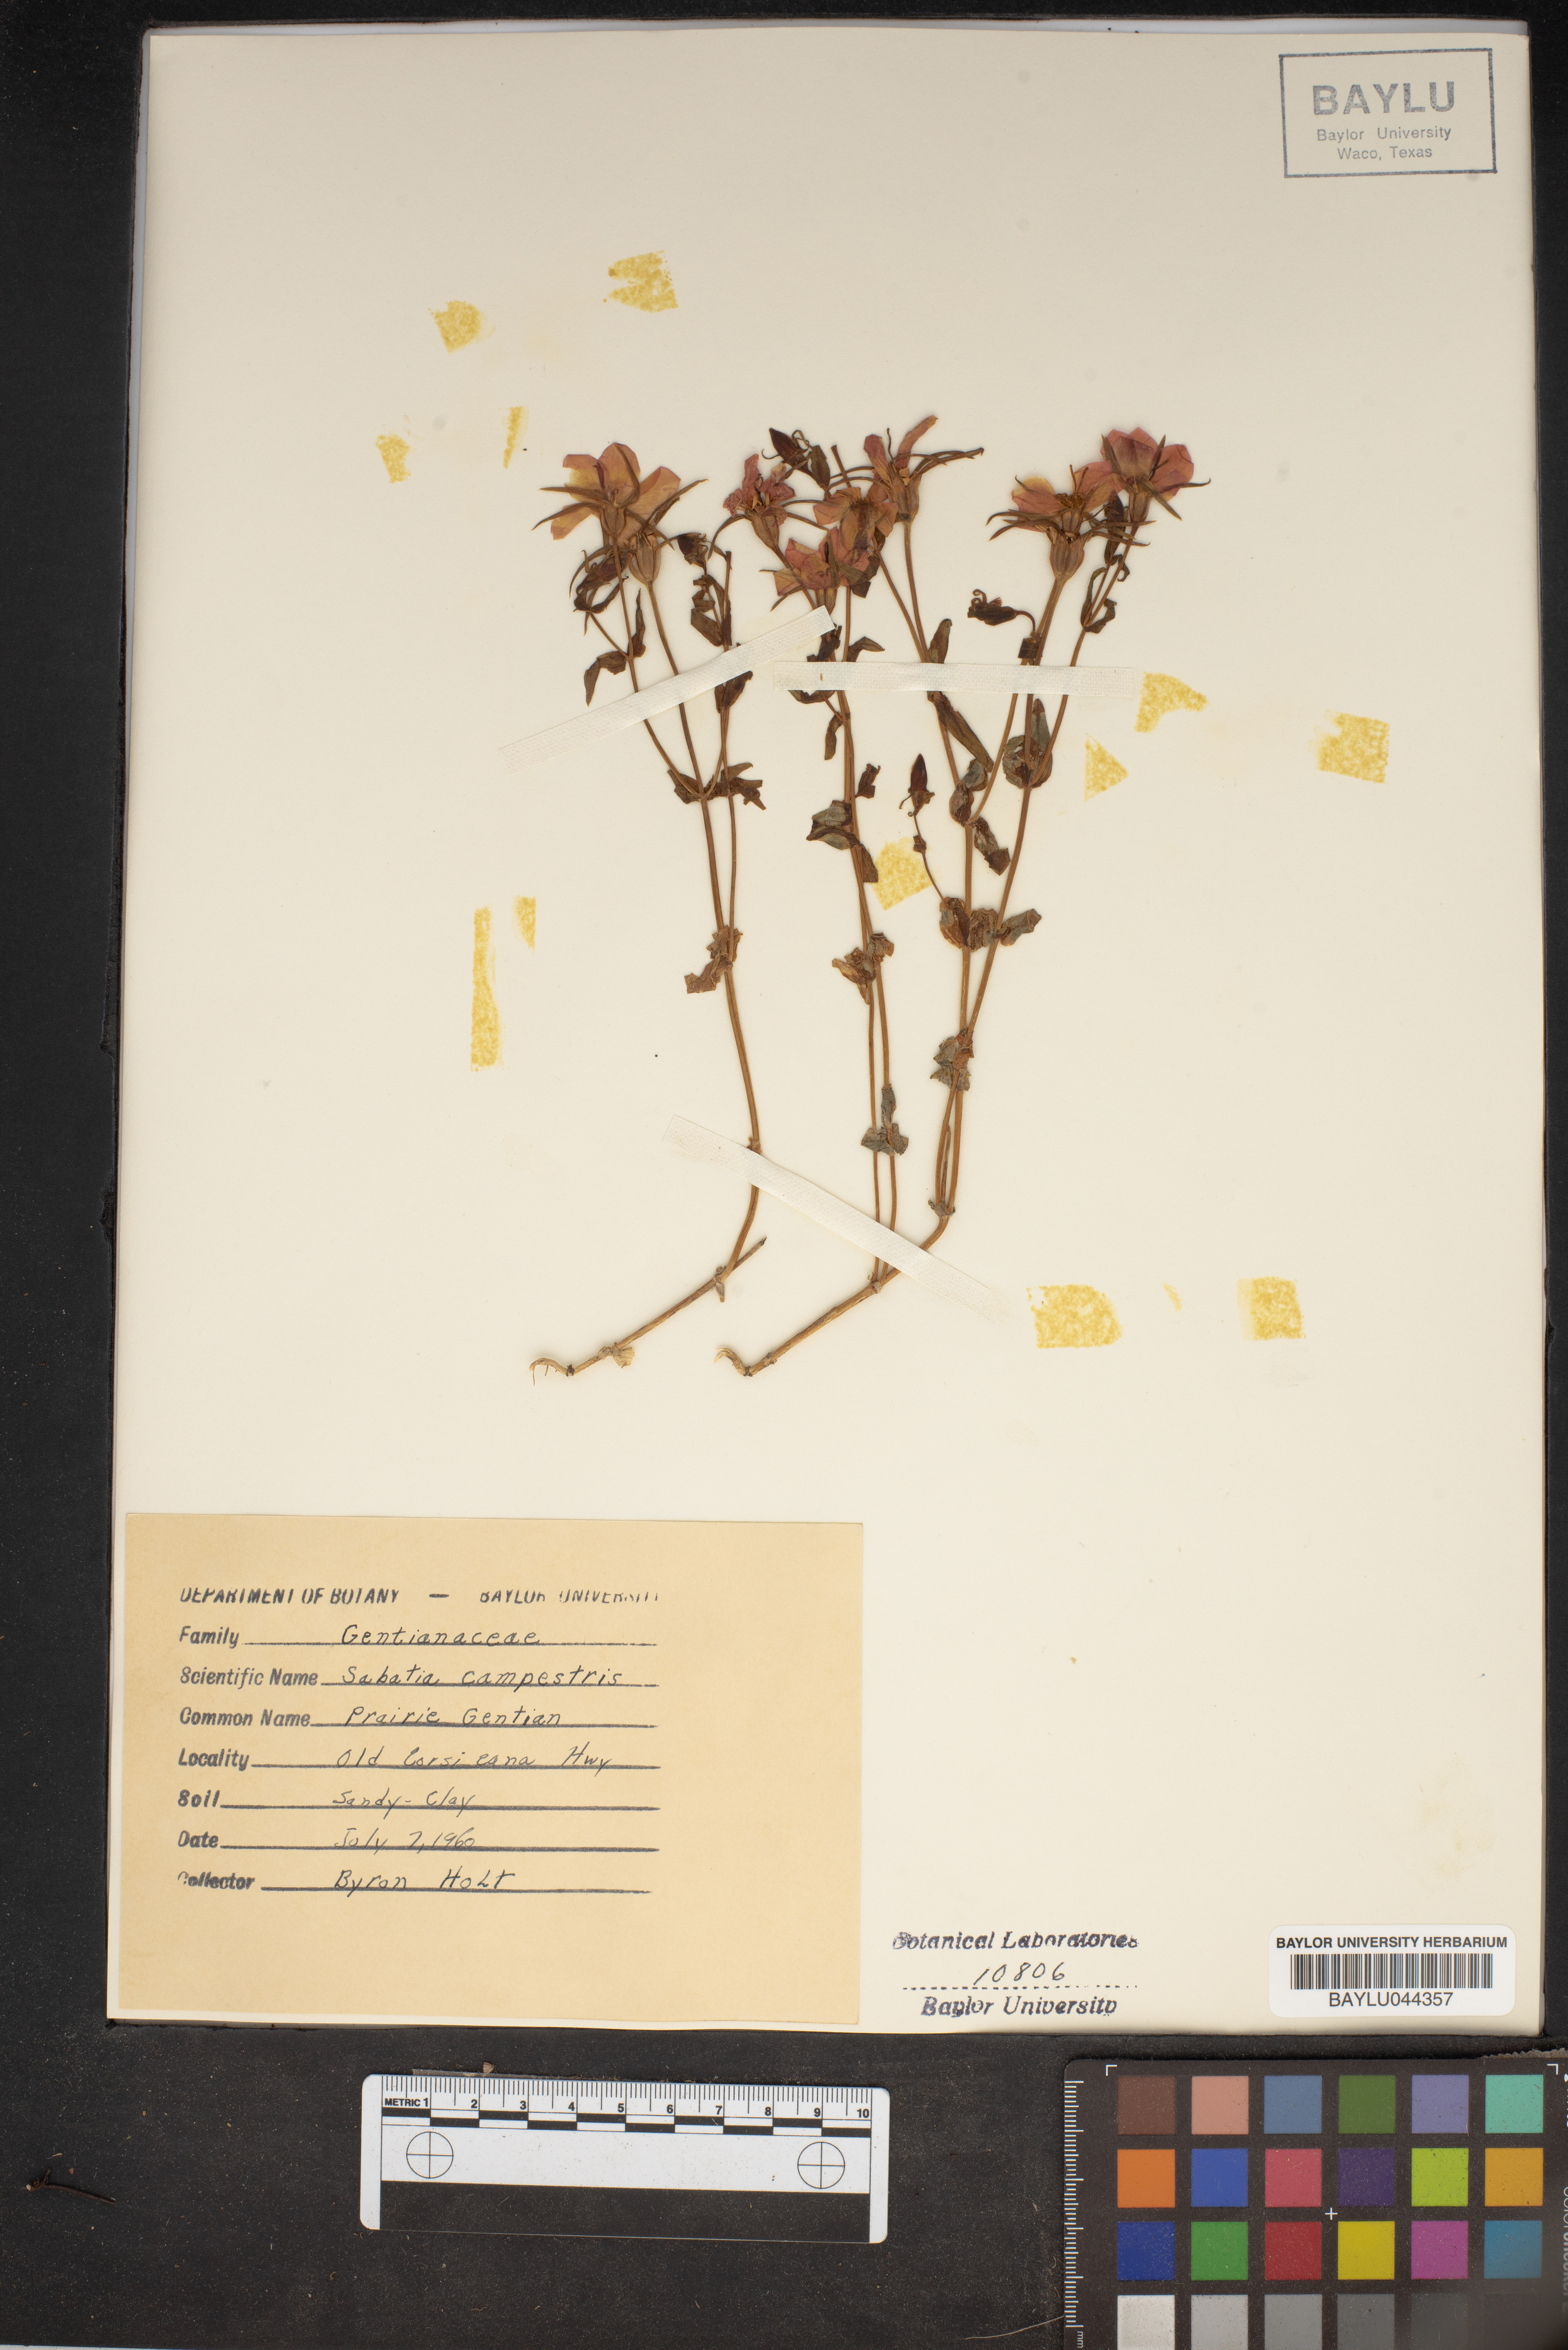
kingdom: Plantae
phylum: Tracheophyta
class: Magnoliopsida
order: Gentianales
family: Gentianaceae
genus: Sabatia
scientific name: Sabatia campestris
